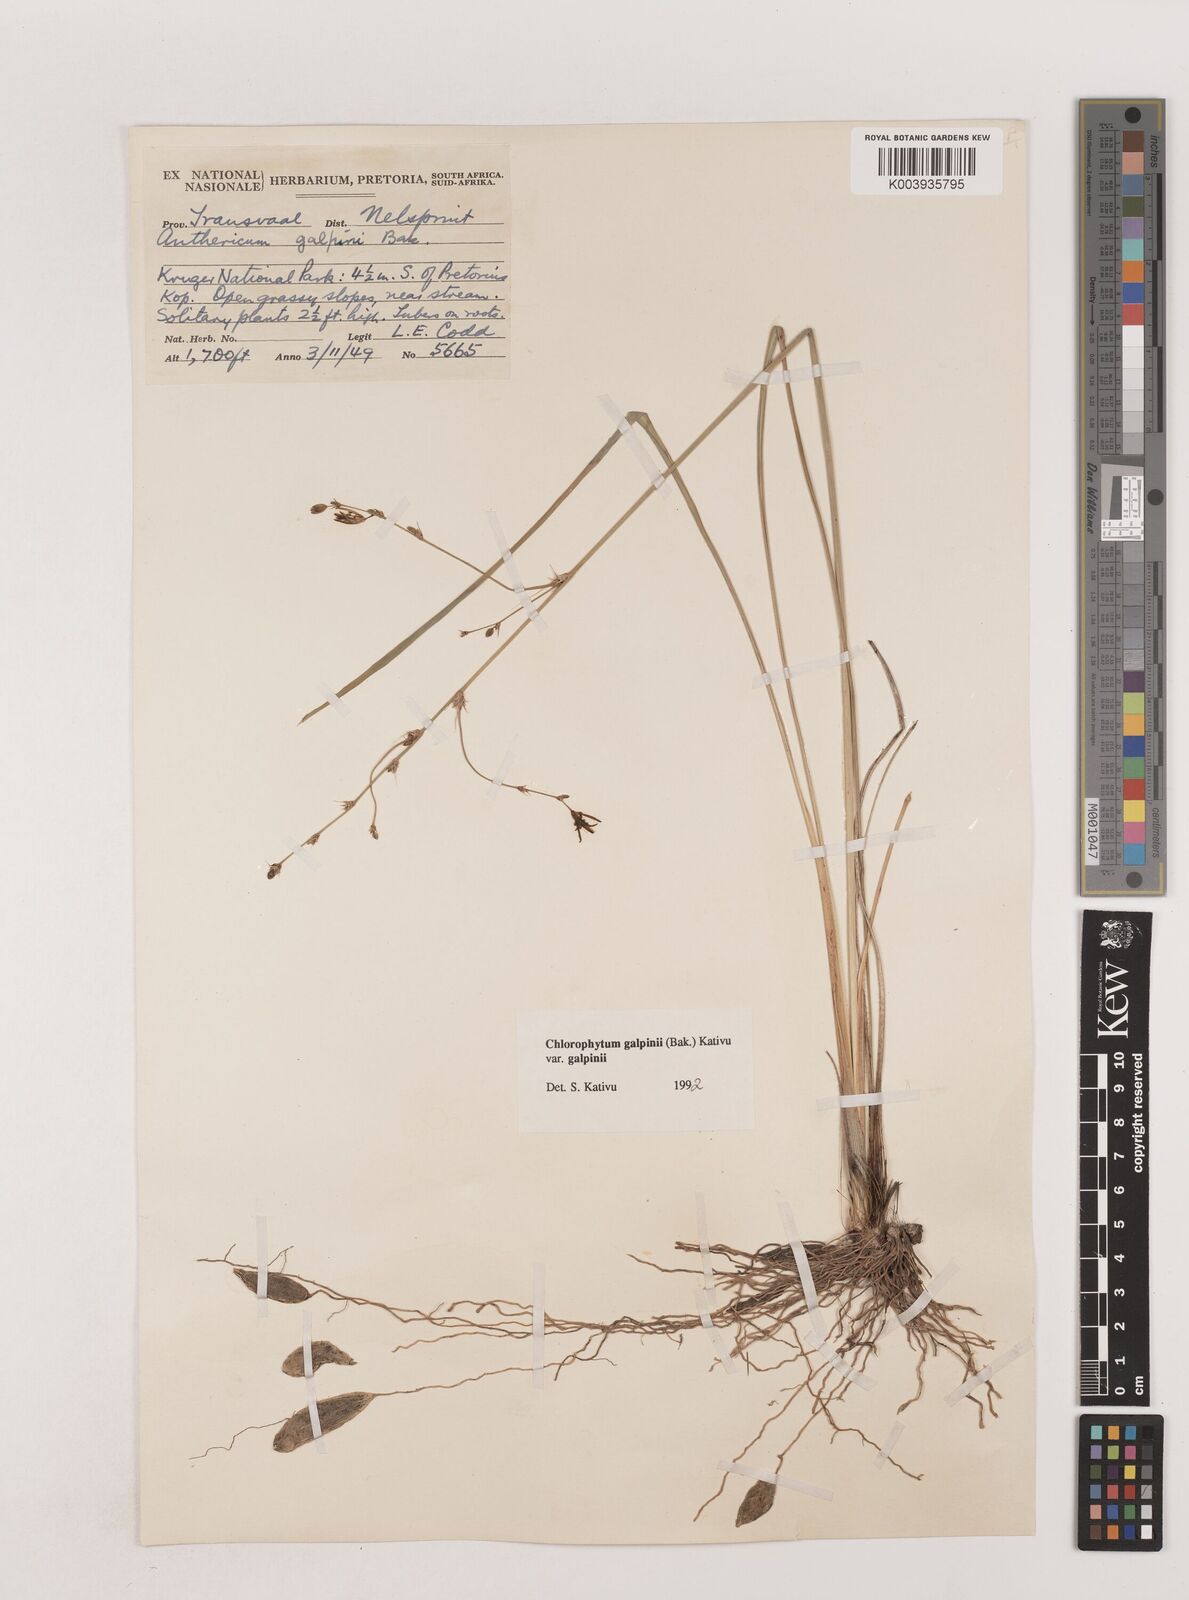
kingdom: Plantae
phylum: Tracheophyta
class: Liliopsida
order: Asparagales
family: Asparagaceae
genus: Chlorophytum
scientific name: Chlorophytum galpinii
